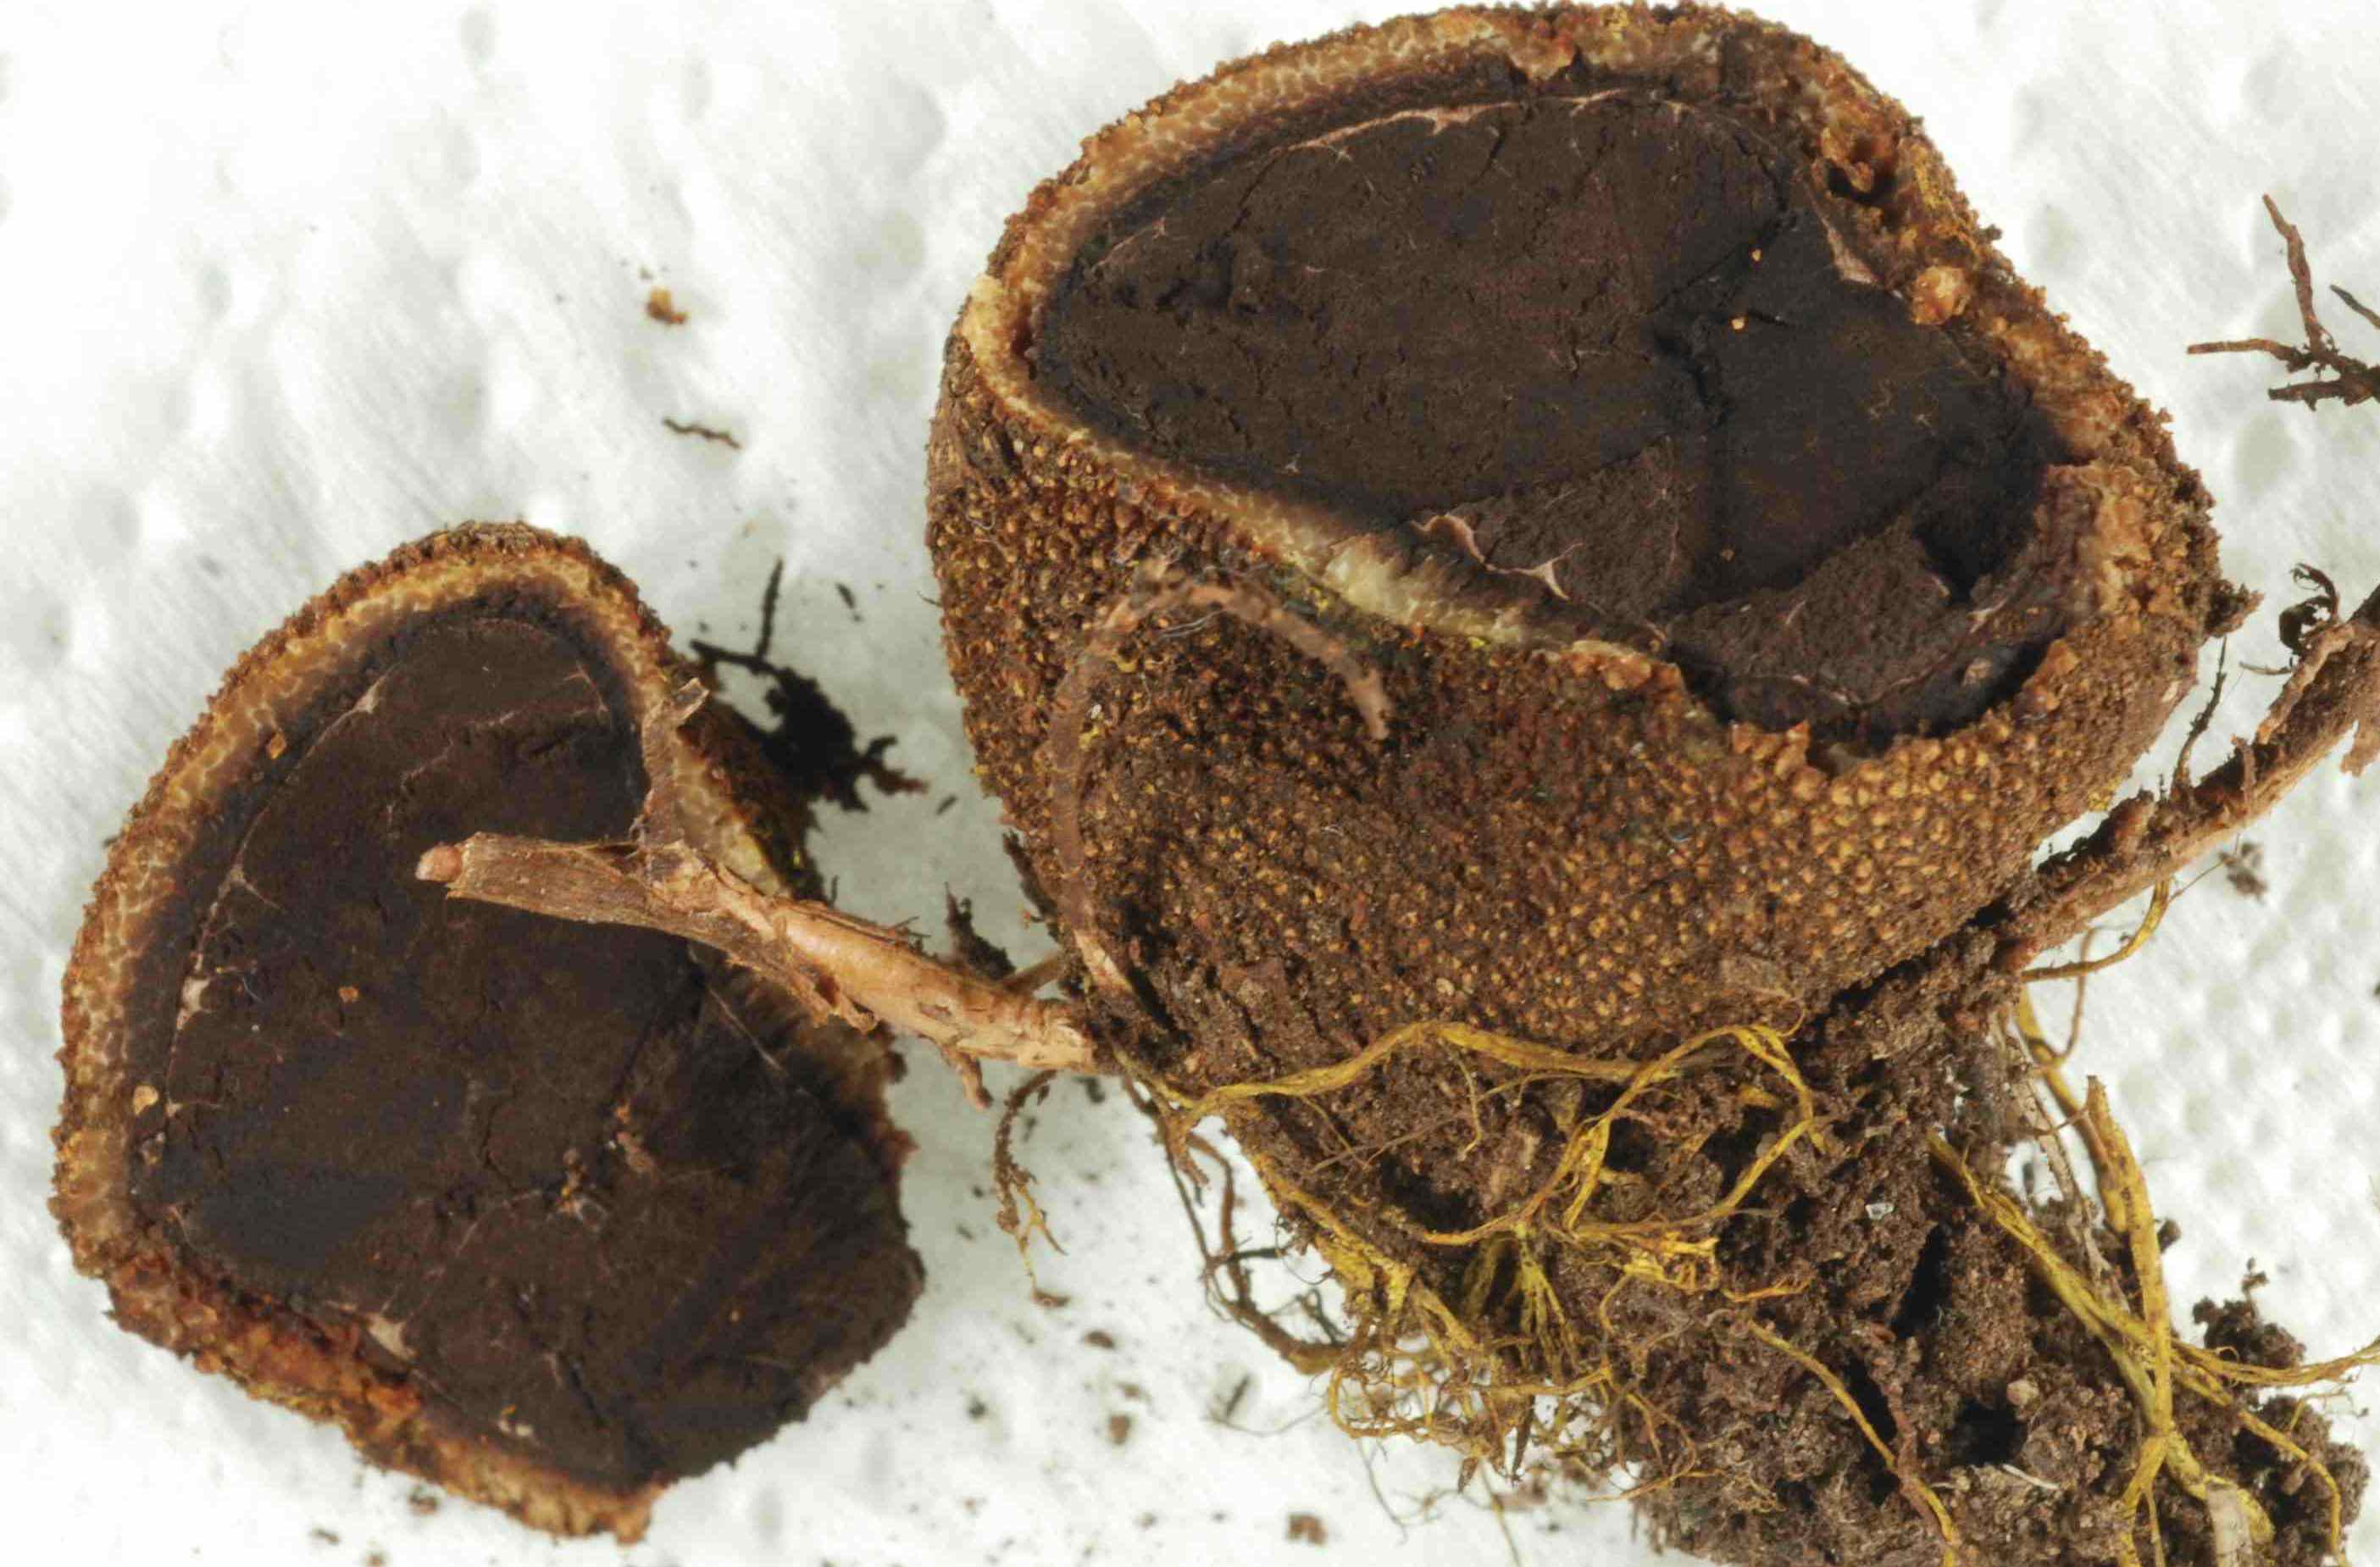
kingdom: Fungi
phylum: Ascomycota
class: Eurotiomycetes
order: Eurotiales
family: Elaphomycetaceae
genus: Elaphomyces
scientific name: Elaphomyces muricatus
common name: vortet hjortetrøffel
